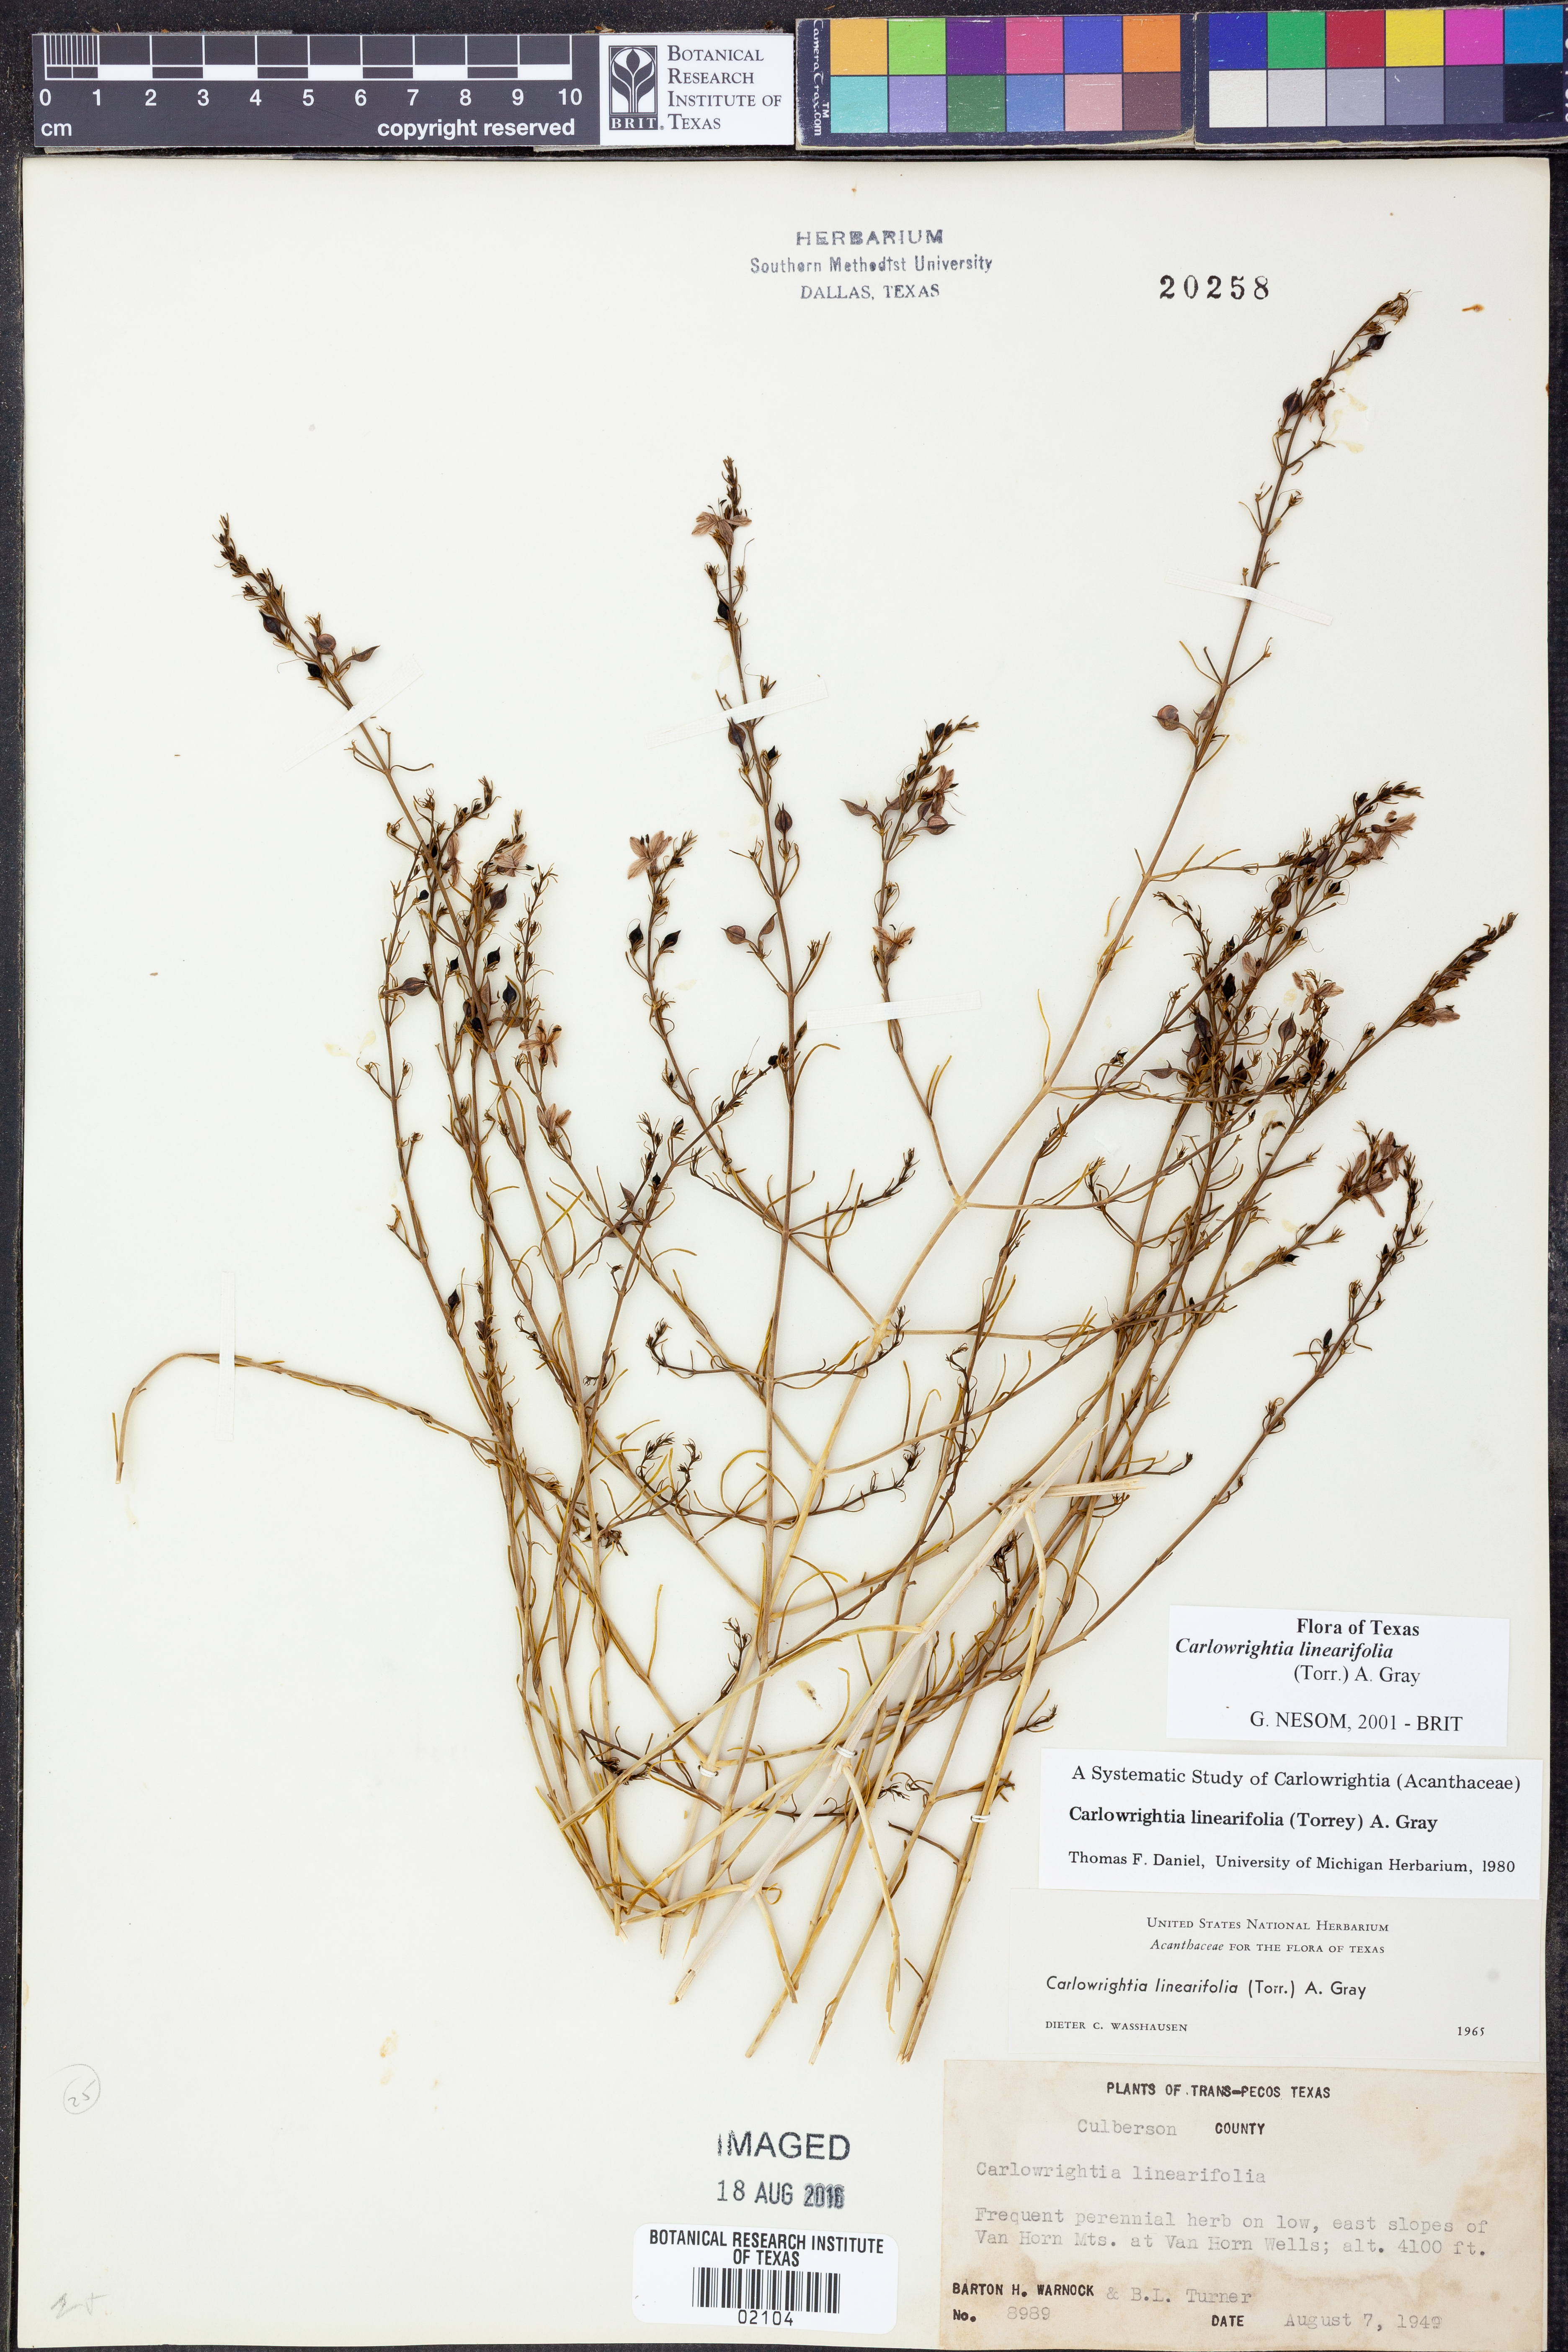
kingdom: Plantae
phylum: Tracheophyta
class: Magnoliopsida
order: Lamiales
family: Acanthaceae
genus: Carlowrightia
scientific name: Carlowrightia linearifolia
